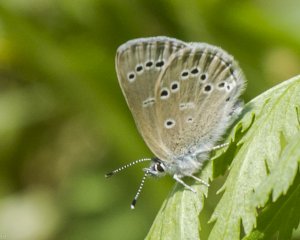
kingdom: Animalia
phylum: Arthropoda
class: Insecta
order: Lepidoptera
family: Lycaenidae
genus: Glaucopsyche
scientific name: Glaucopsyche lygdamus
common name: Silvery Blue
